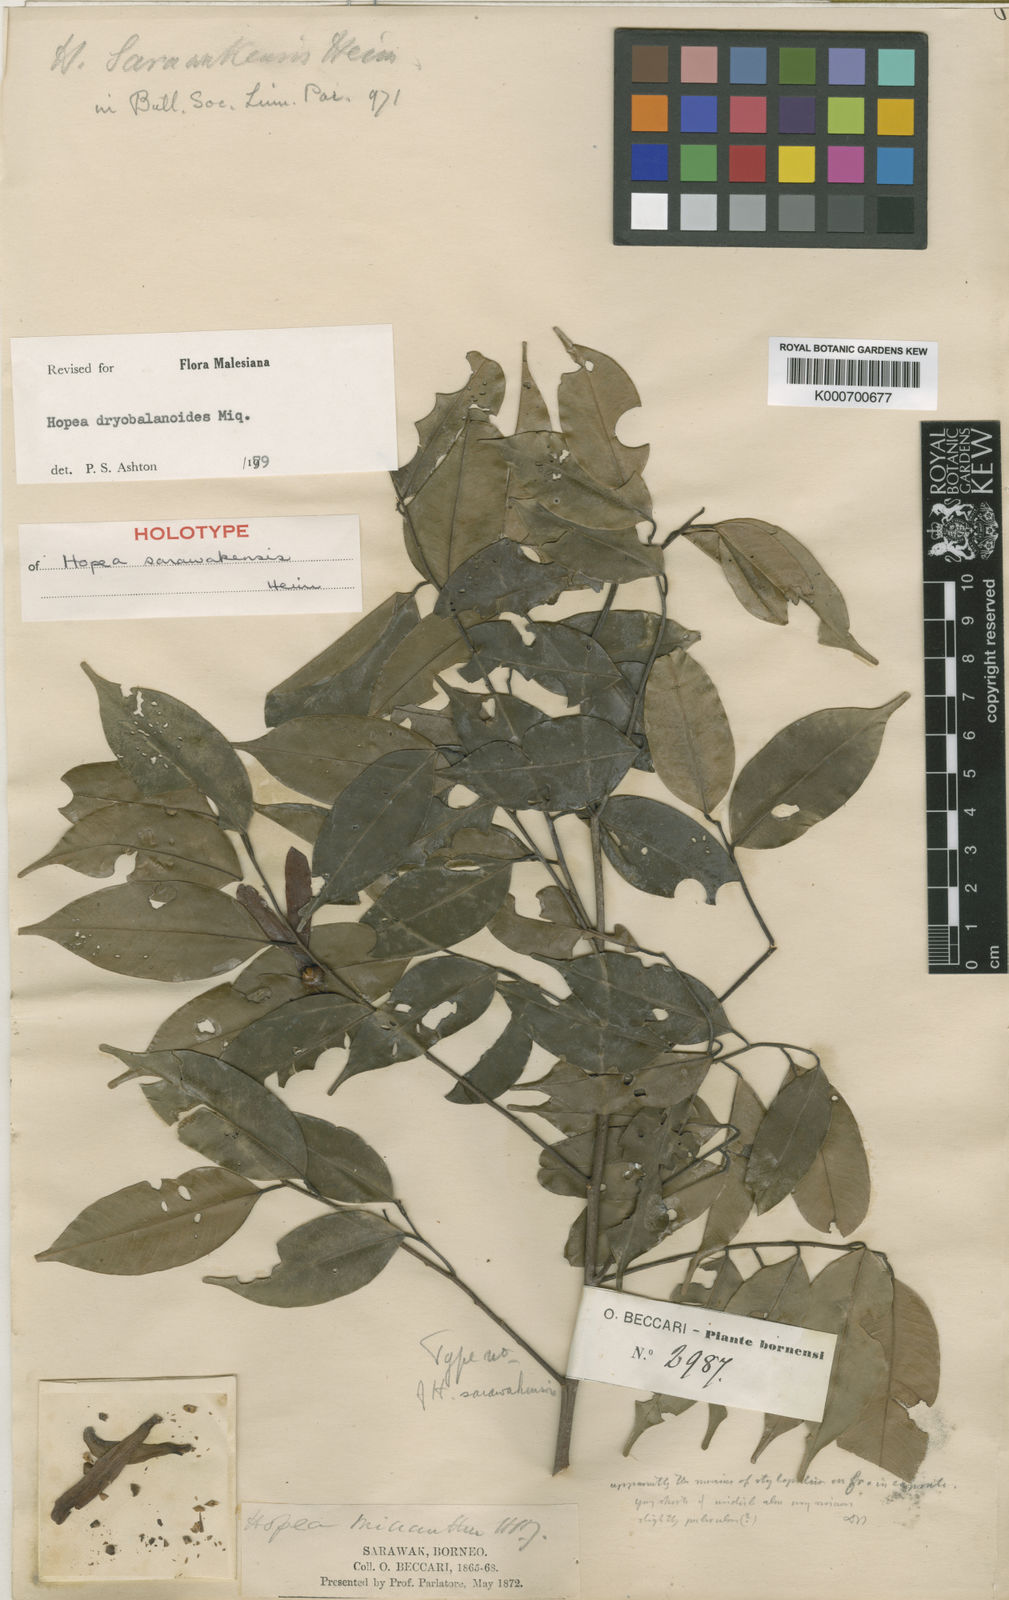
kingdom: Plantae
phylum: Tracheophyta
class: Magnoliopsida
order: Malvales
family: Dipterocarpaceae
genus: Hopea
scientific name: Hopea dryobalanoides
